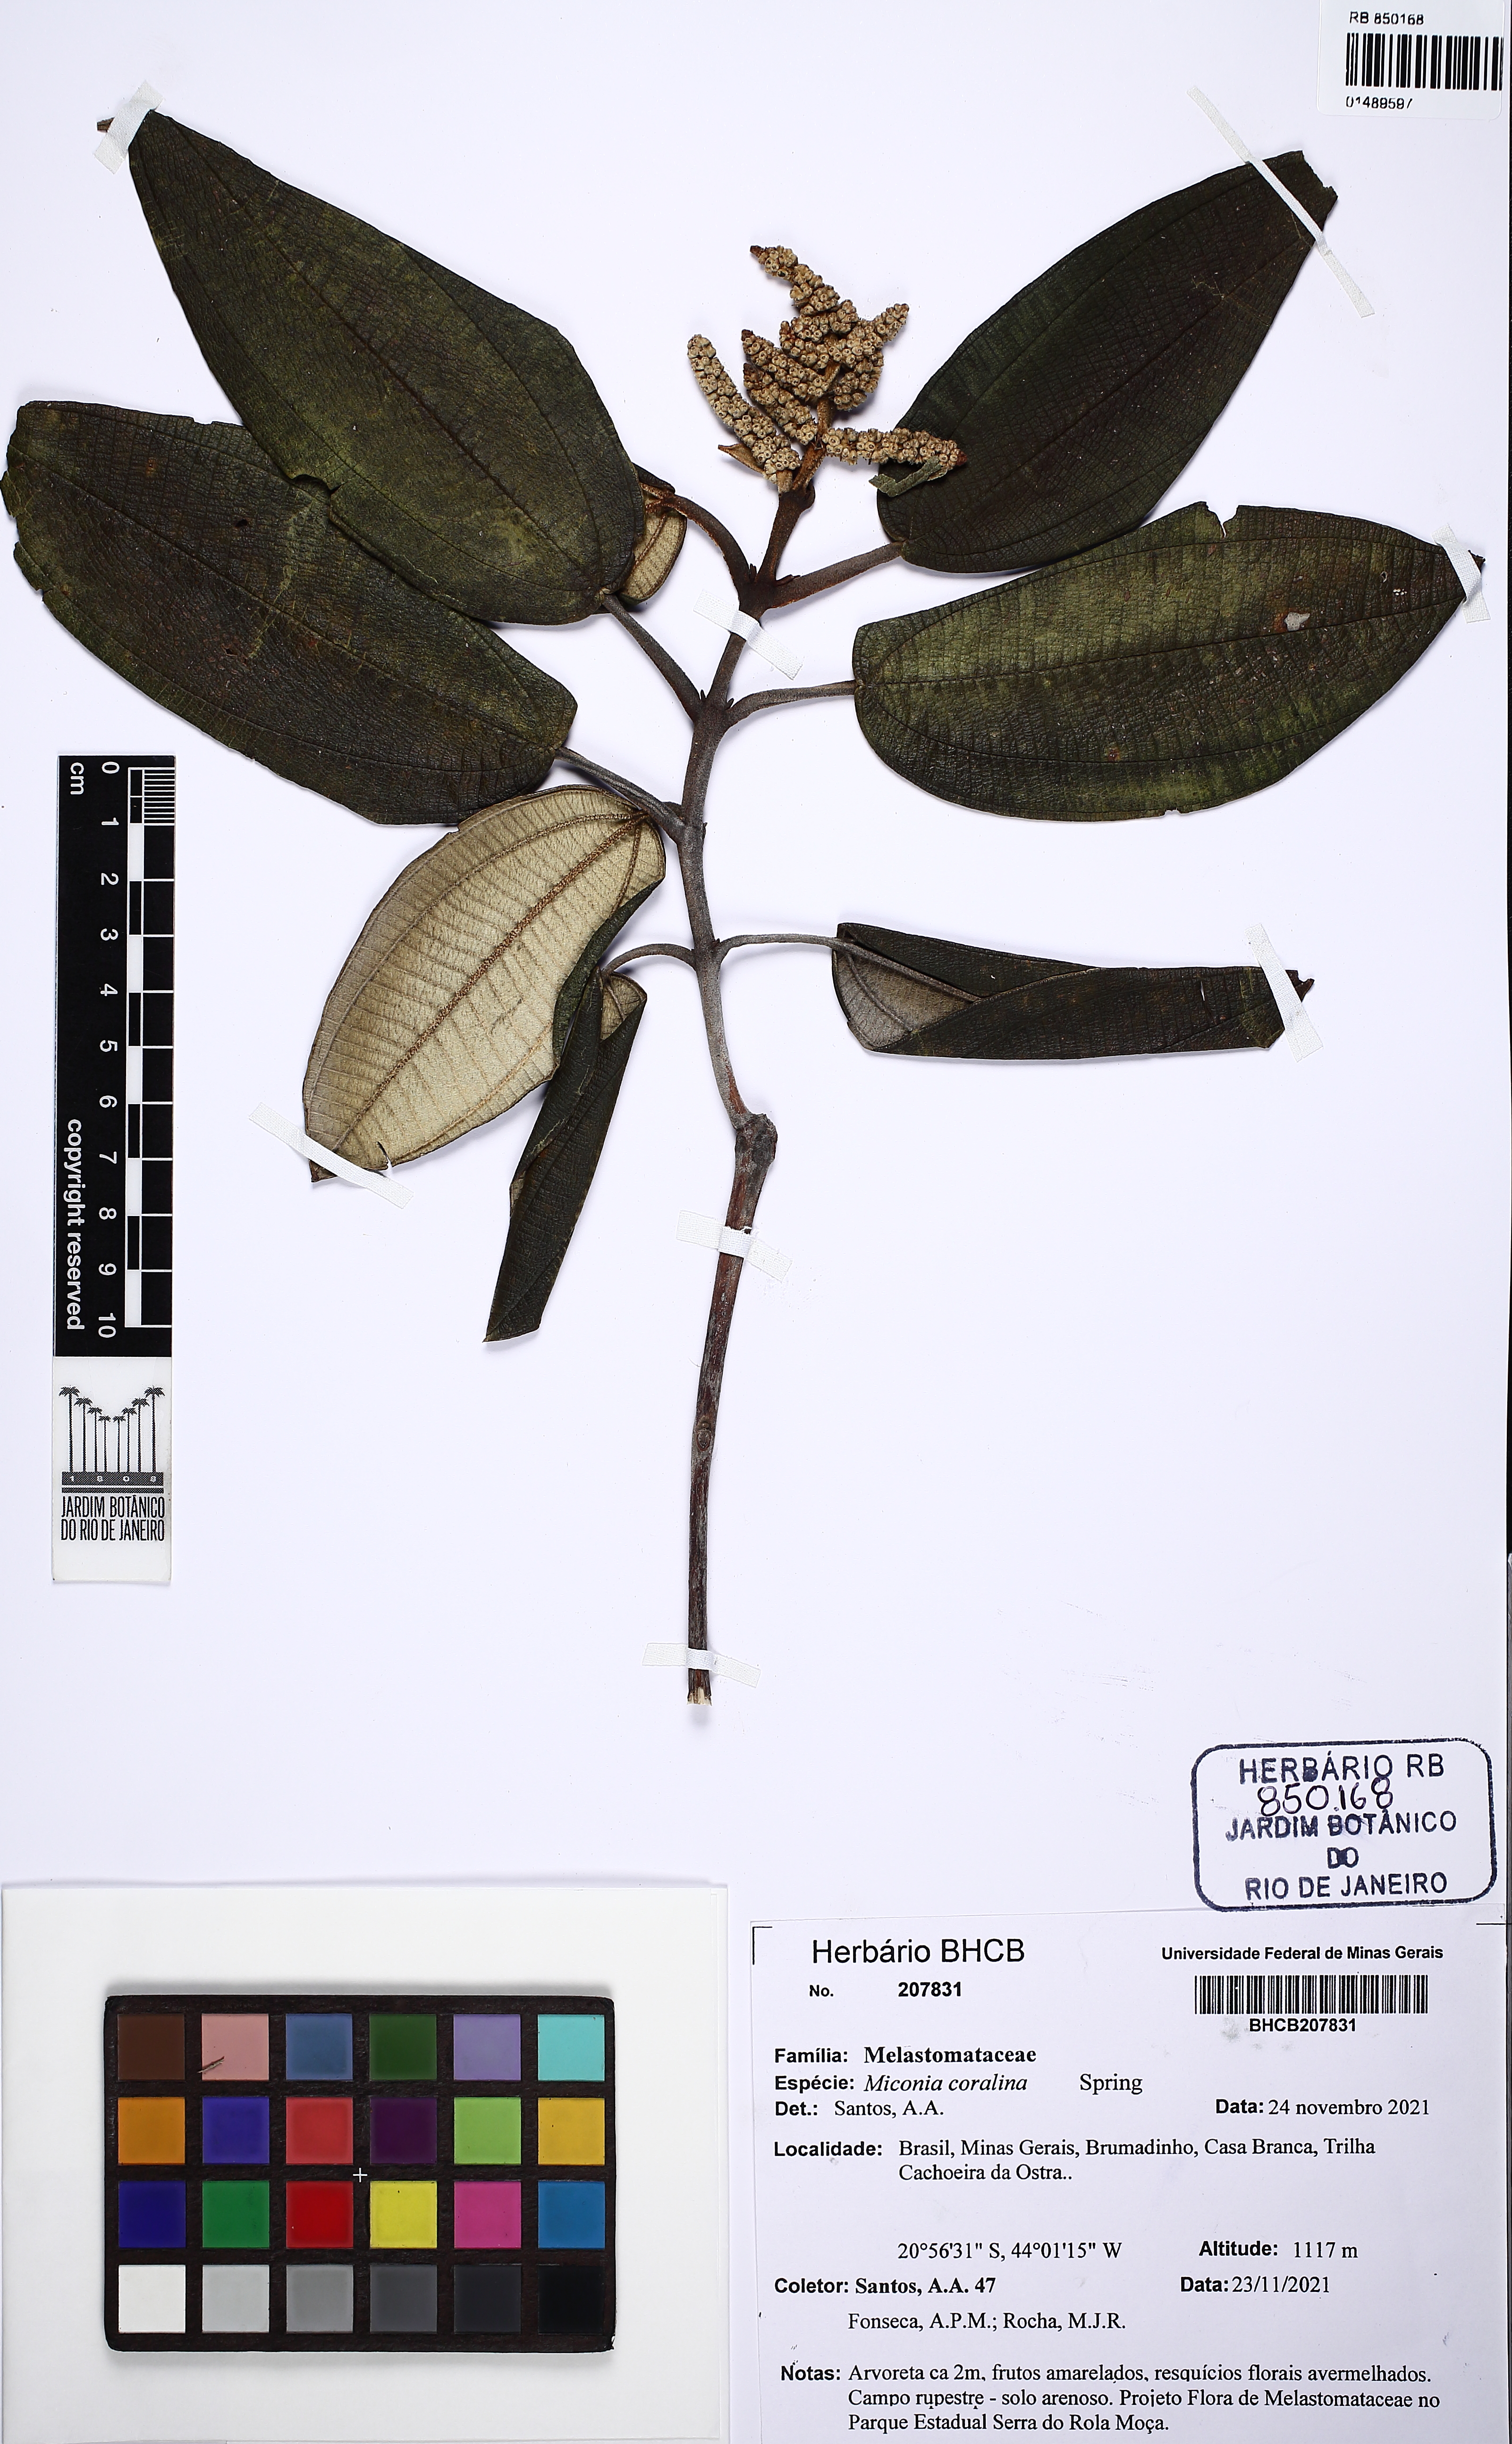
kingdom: Plantae
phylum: Tracheophyta
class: Magnoliopsida
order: Myrtales
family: Melastomataceae
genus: Miconia
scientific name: Miconia corallina
